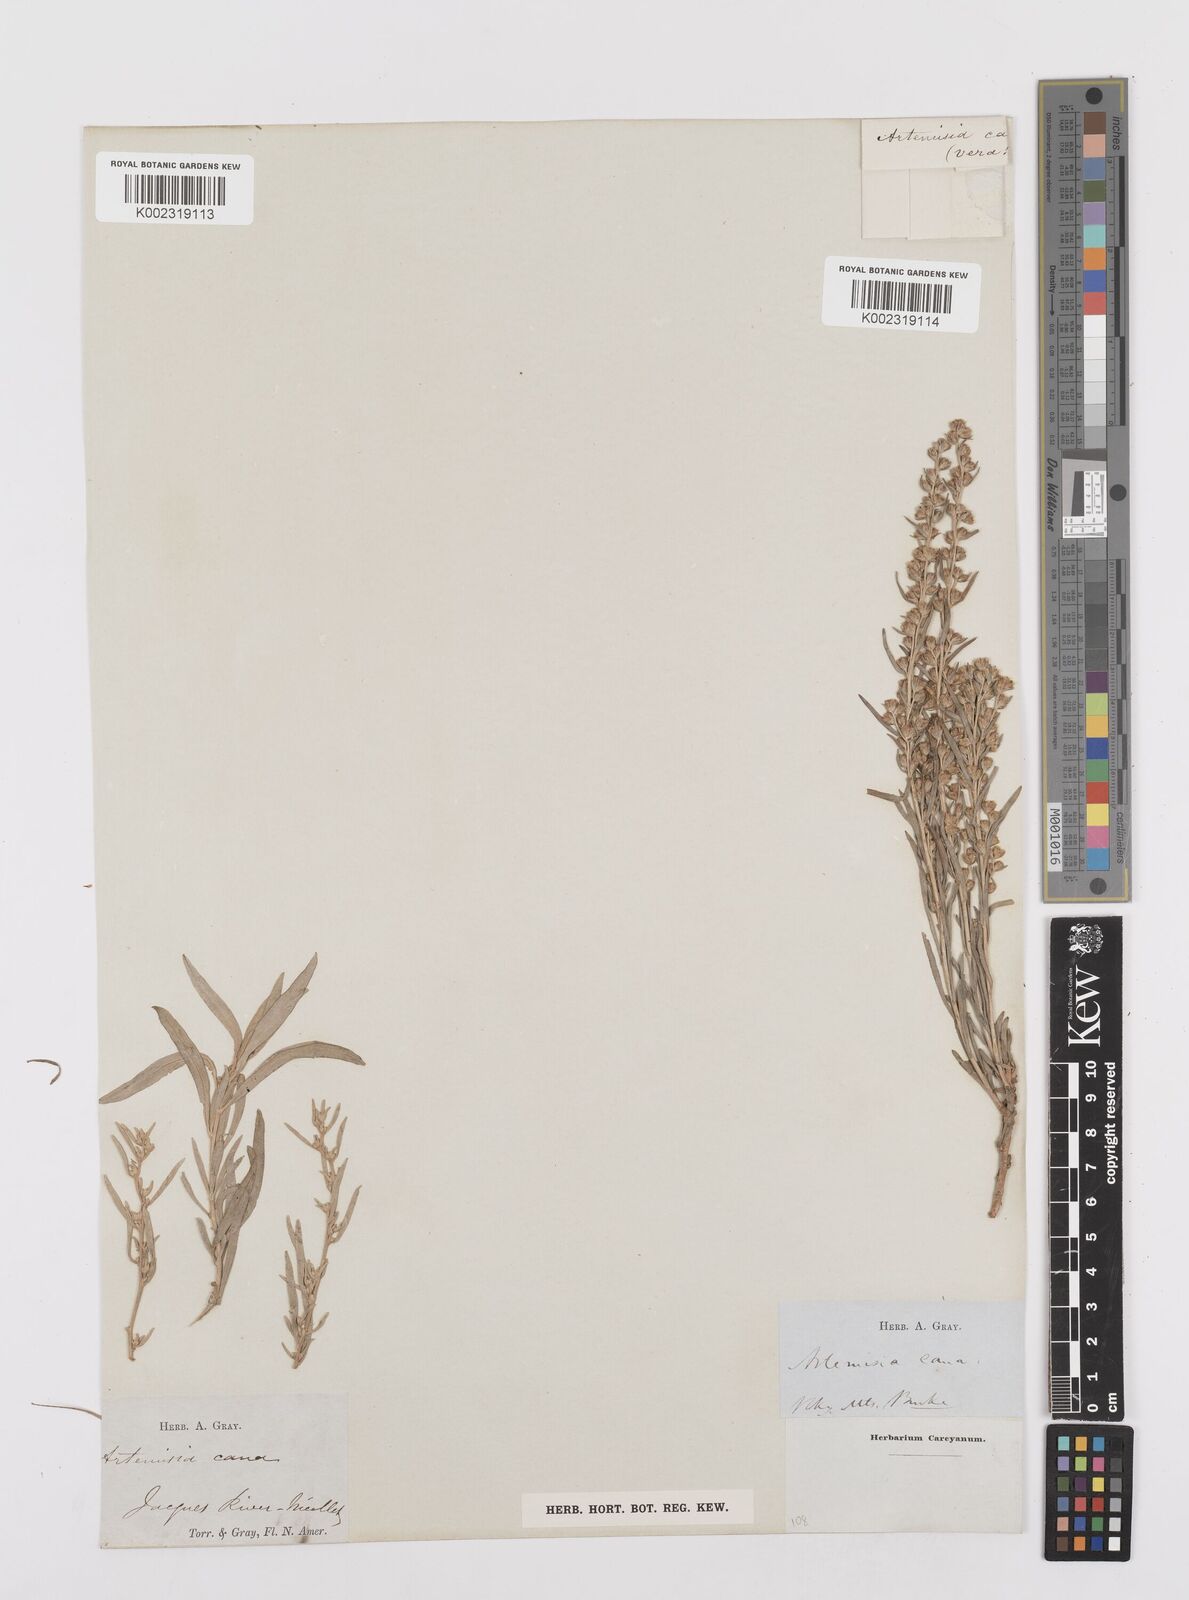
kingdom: Plantae
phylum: Tracheophyta
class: Magnoliopsida
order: Asterales
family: Asteraceae
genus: Artemisia
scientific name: Artemisia cana
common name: Silver sagebrush
